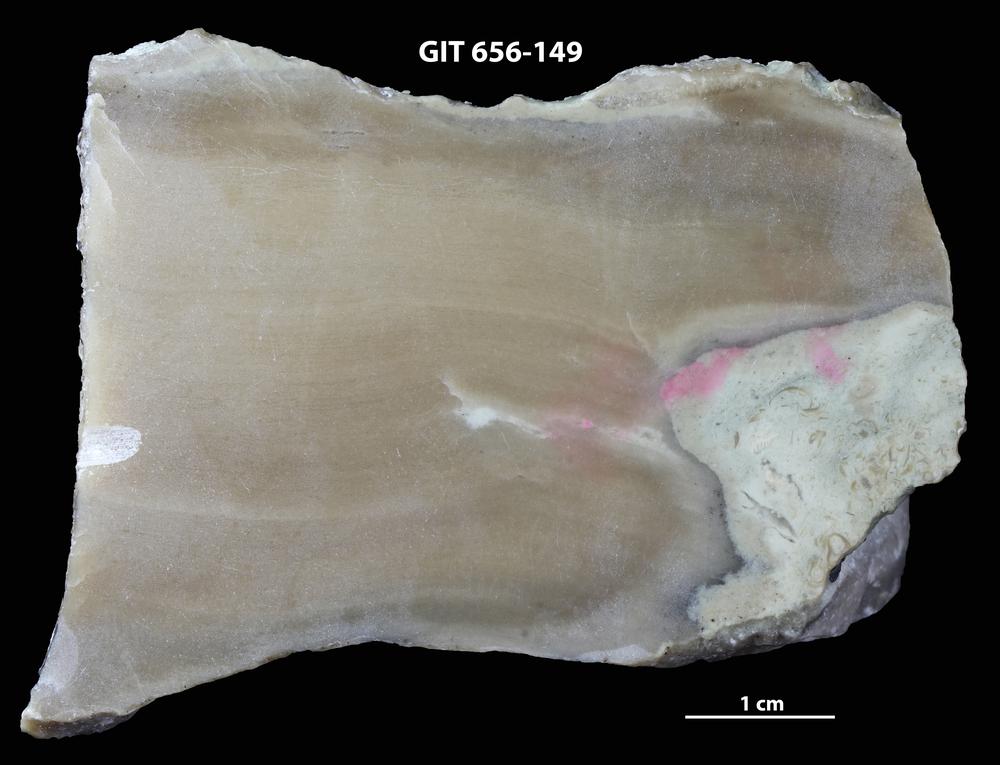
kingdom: Animalia
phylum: Porifera
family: Actinostromatidae
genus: Plectostroma
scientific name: Plectostroma
